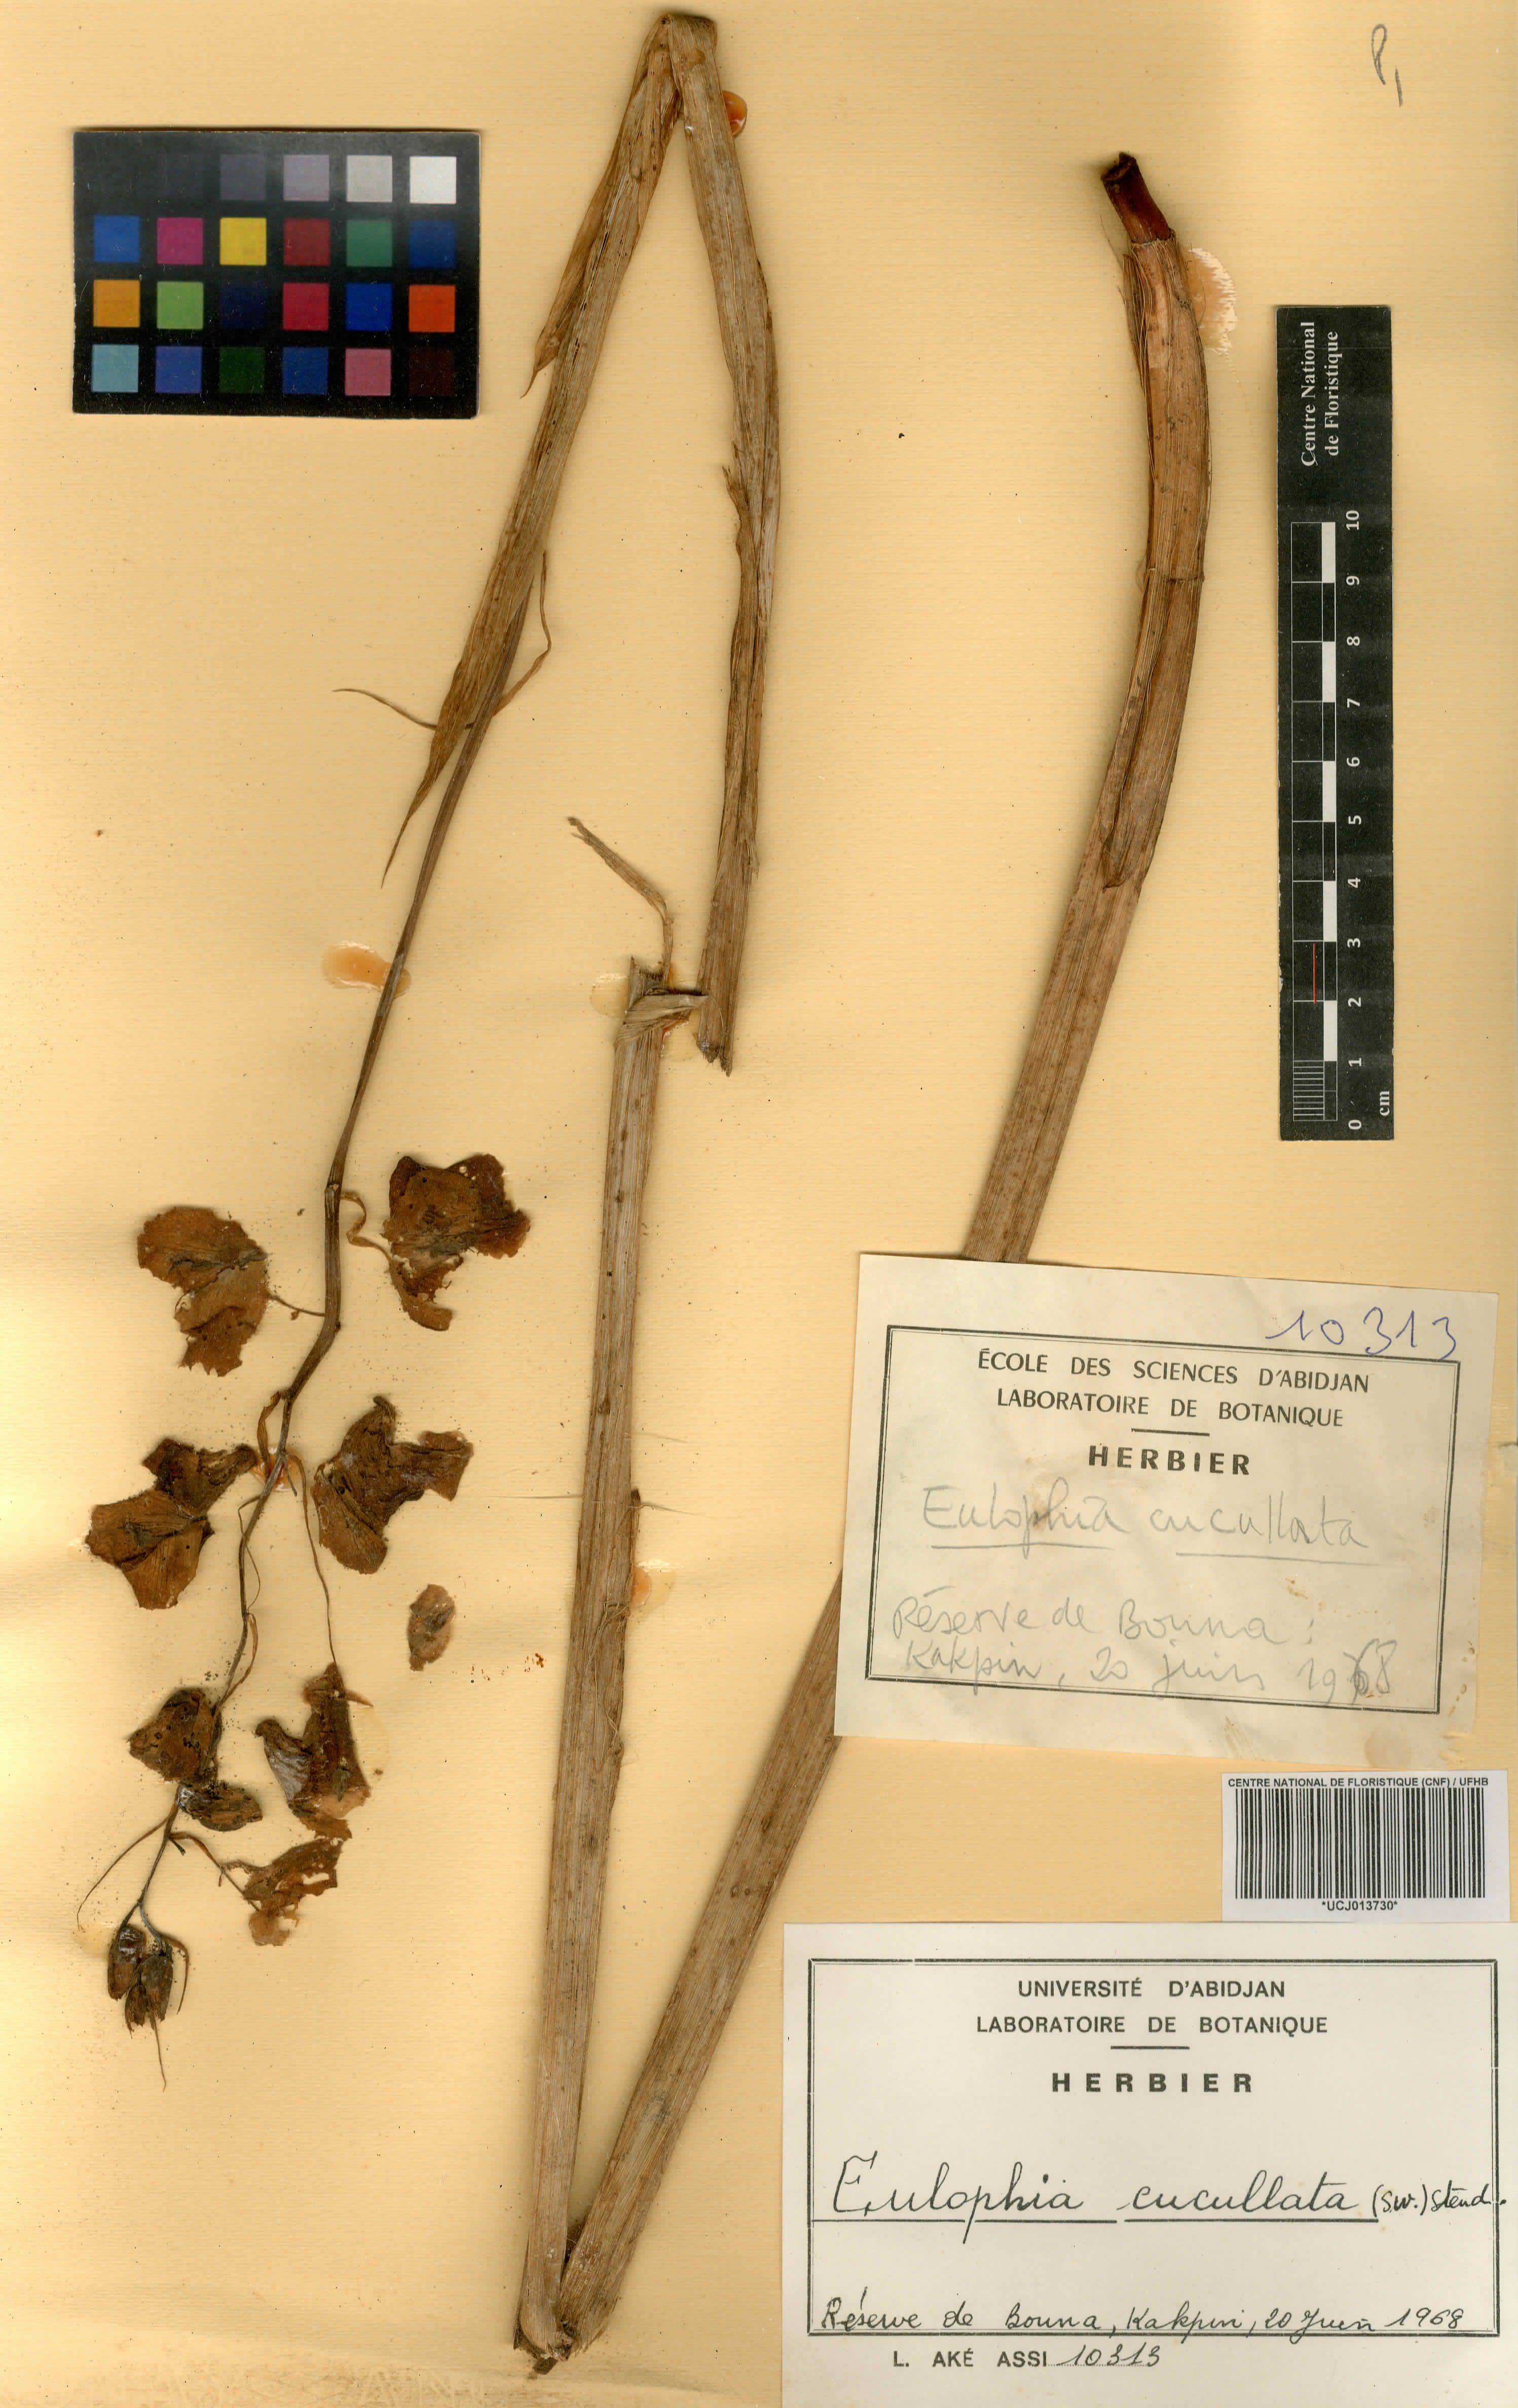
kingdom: Plantae
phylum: Tracheophyta
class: Liliopsida
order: Asparagales
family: Orchidaceae
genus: Eulophia
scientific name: Eulophia cucullata
